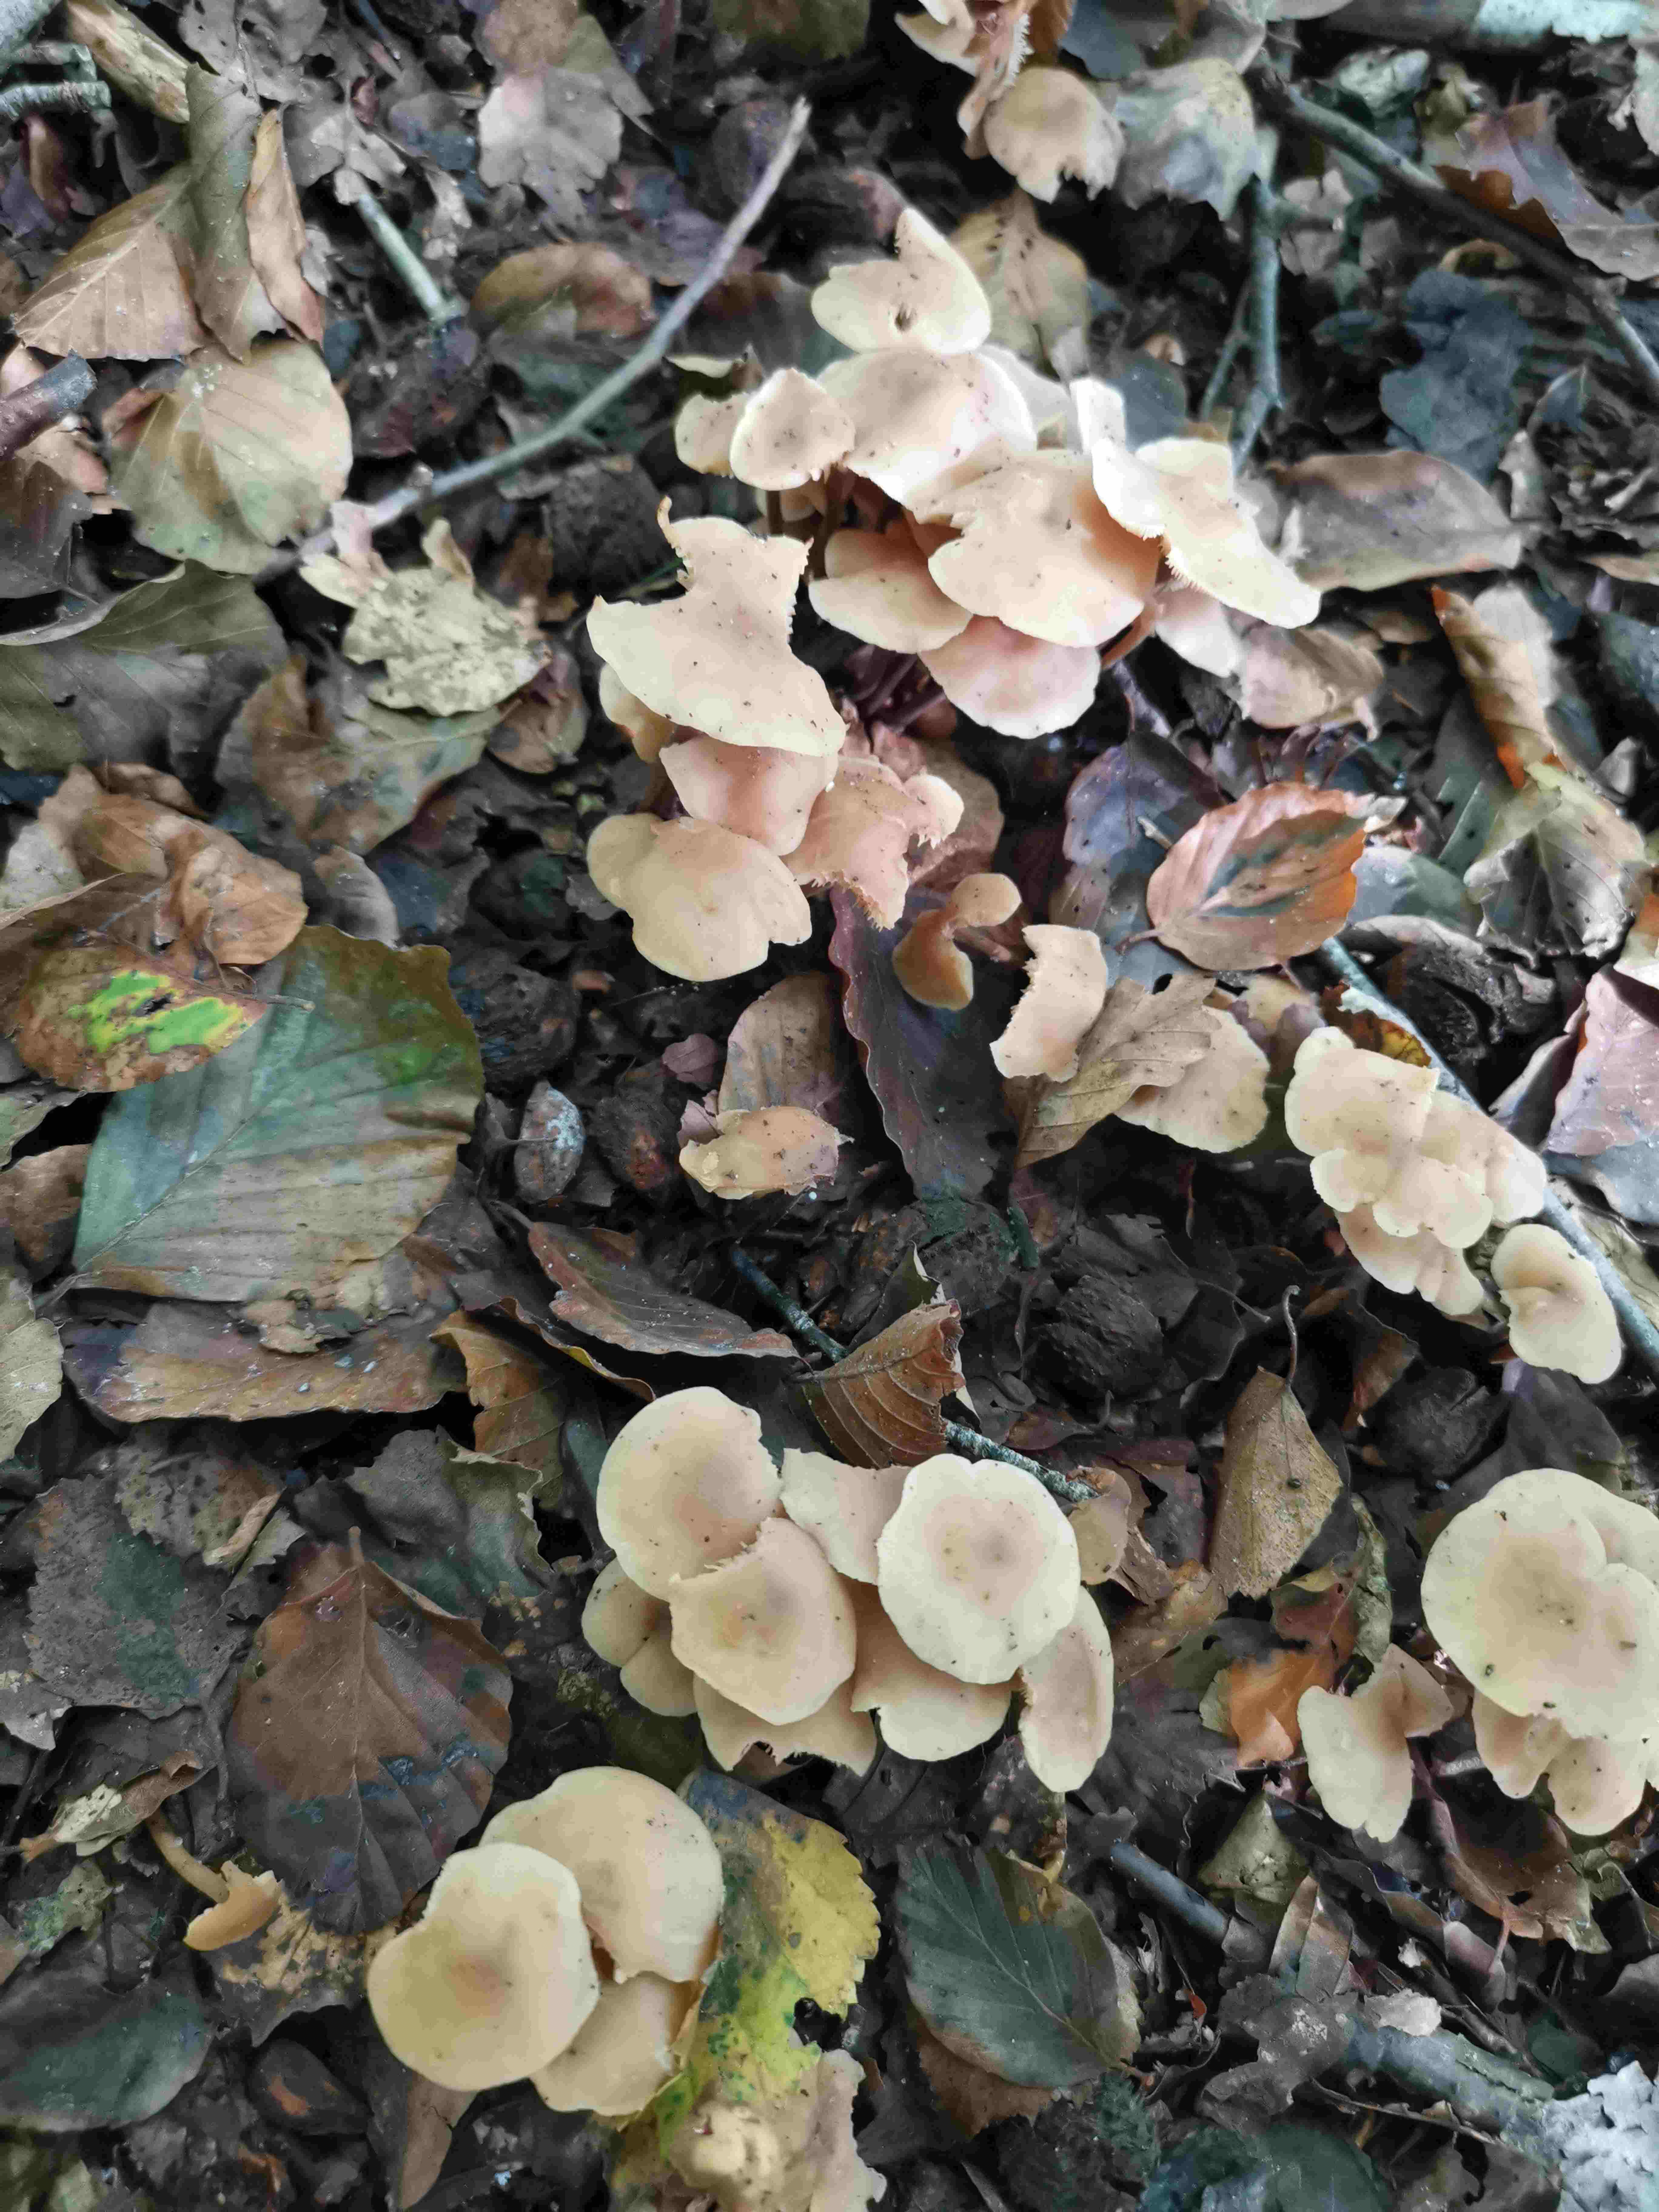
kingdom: Fungi
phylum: Basidiomycota
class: Agaricomycetes
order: Agaricales
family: Omphalotaceae
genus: Collybiopsis
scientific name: Collybiopsis confluens
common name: knippe-fladhat
